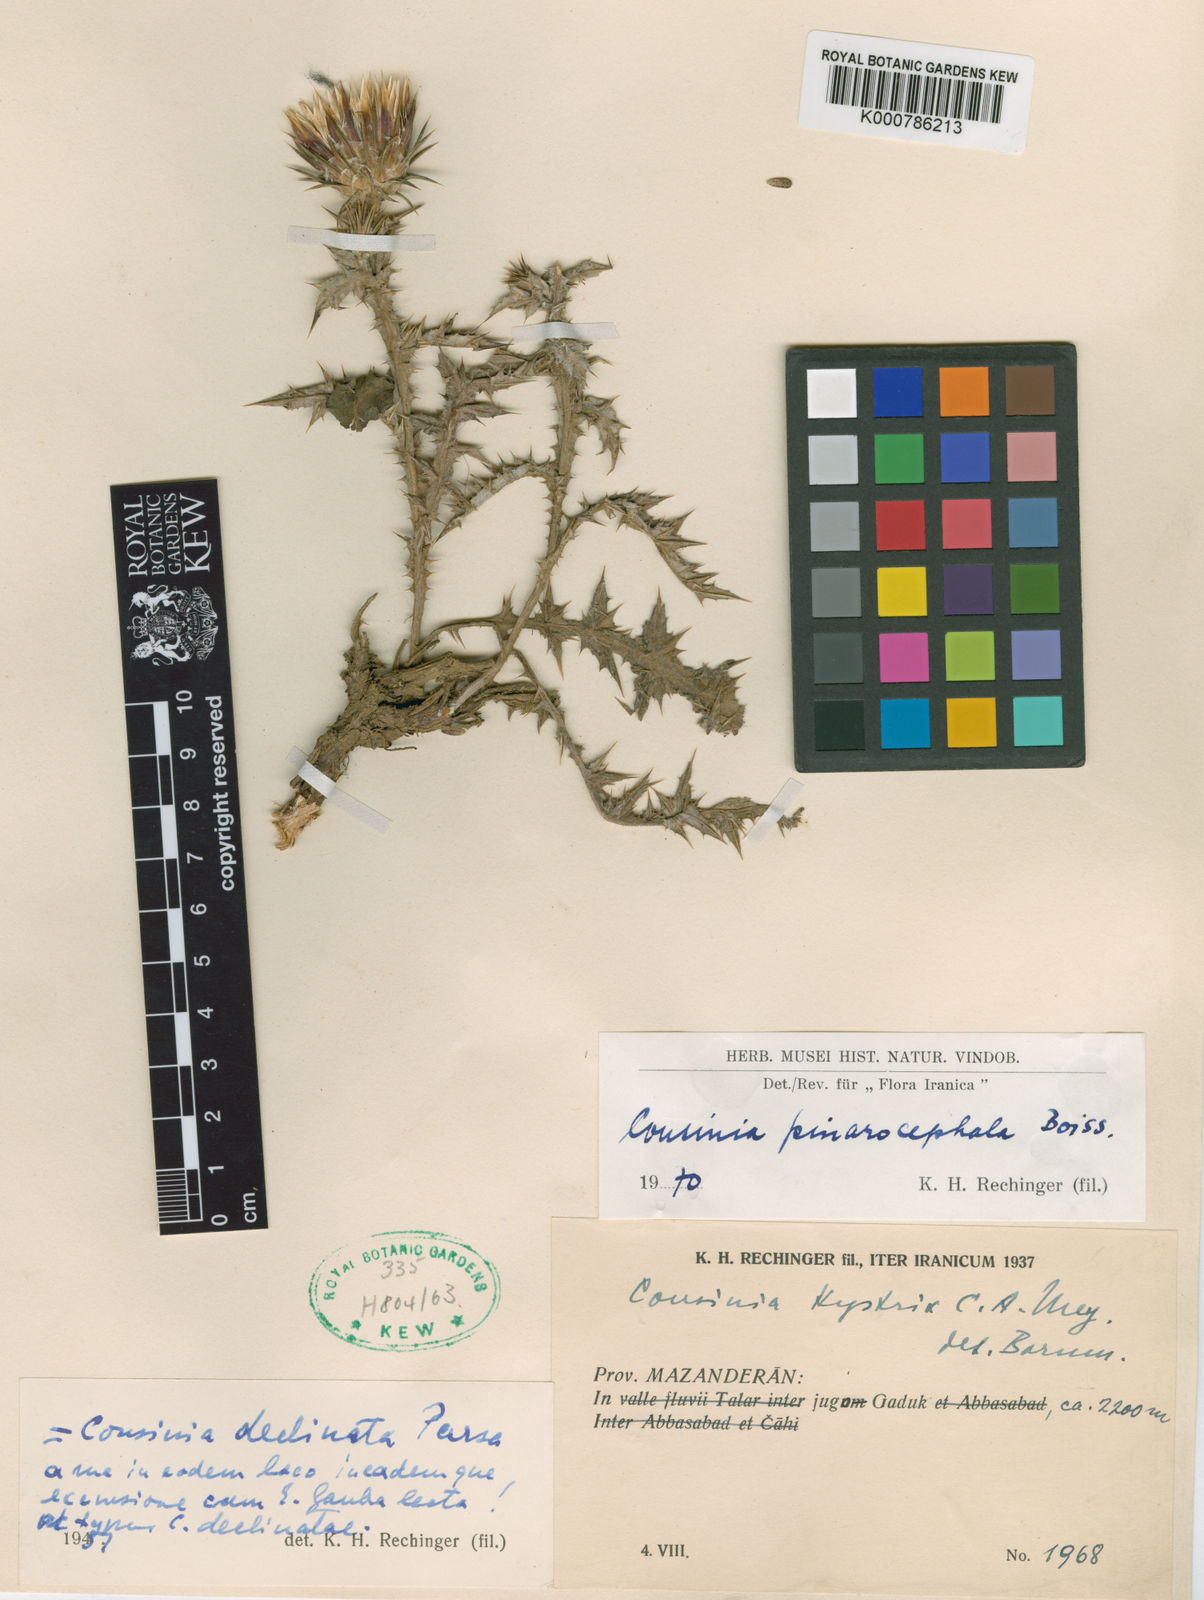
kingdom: Plantae
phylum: Tracheophyta
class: Magnoliopsida
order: Asterales
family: Asteraceae
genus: Cousinia
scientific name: Cousinia pinarocephala
